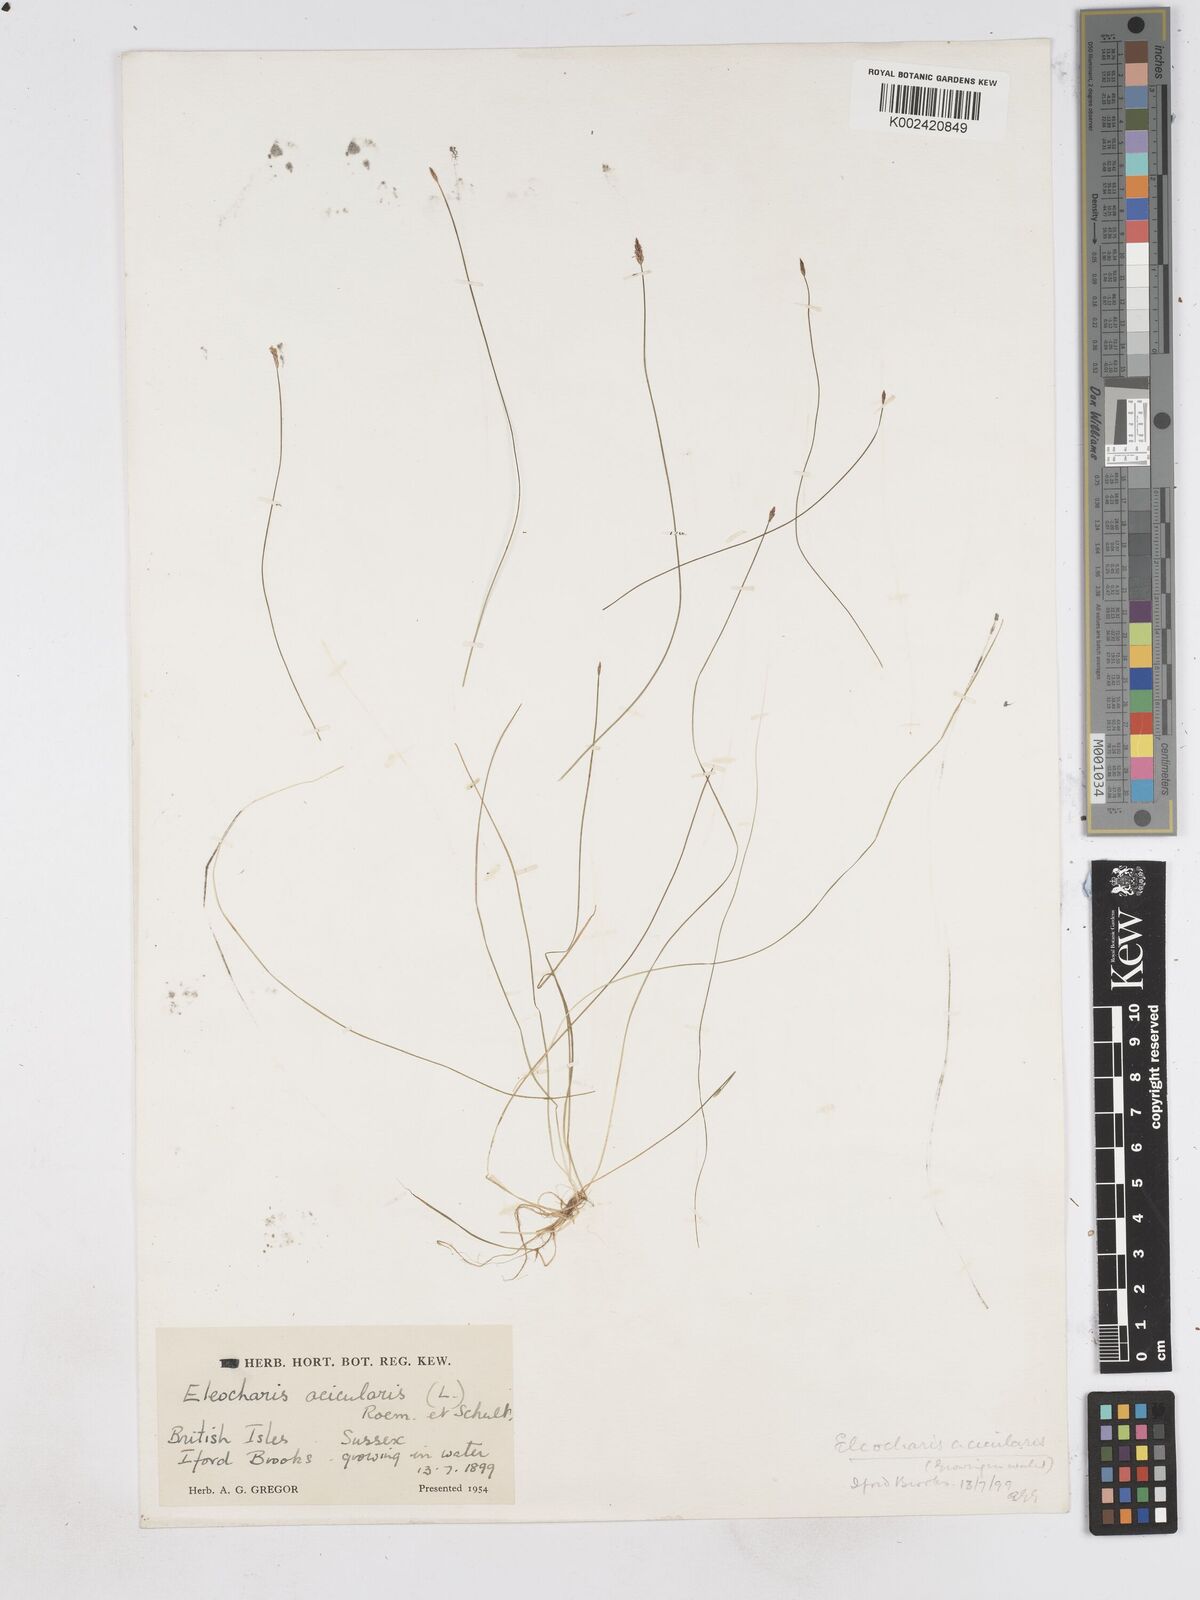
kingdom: Plantae
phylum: Tracheophyta
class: Liliopsida
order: Poales
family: Cyperaceae
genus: Eleocharis
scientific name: Eleocharis acicularis
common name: Needle spike-rush
